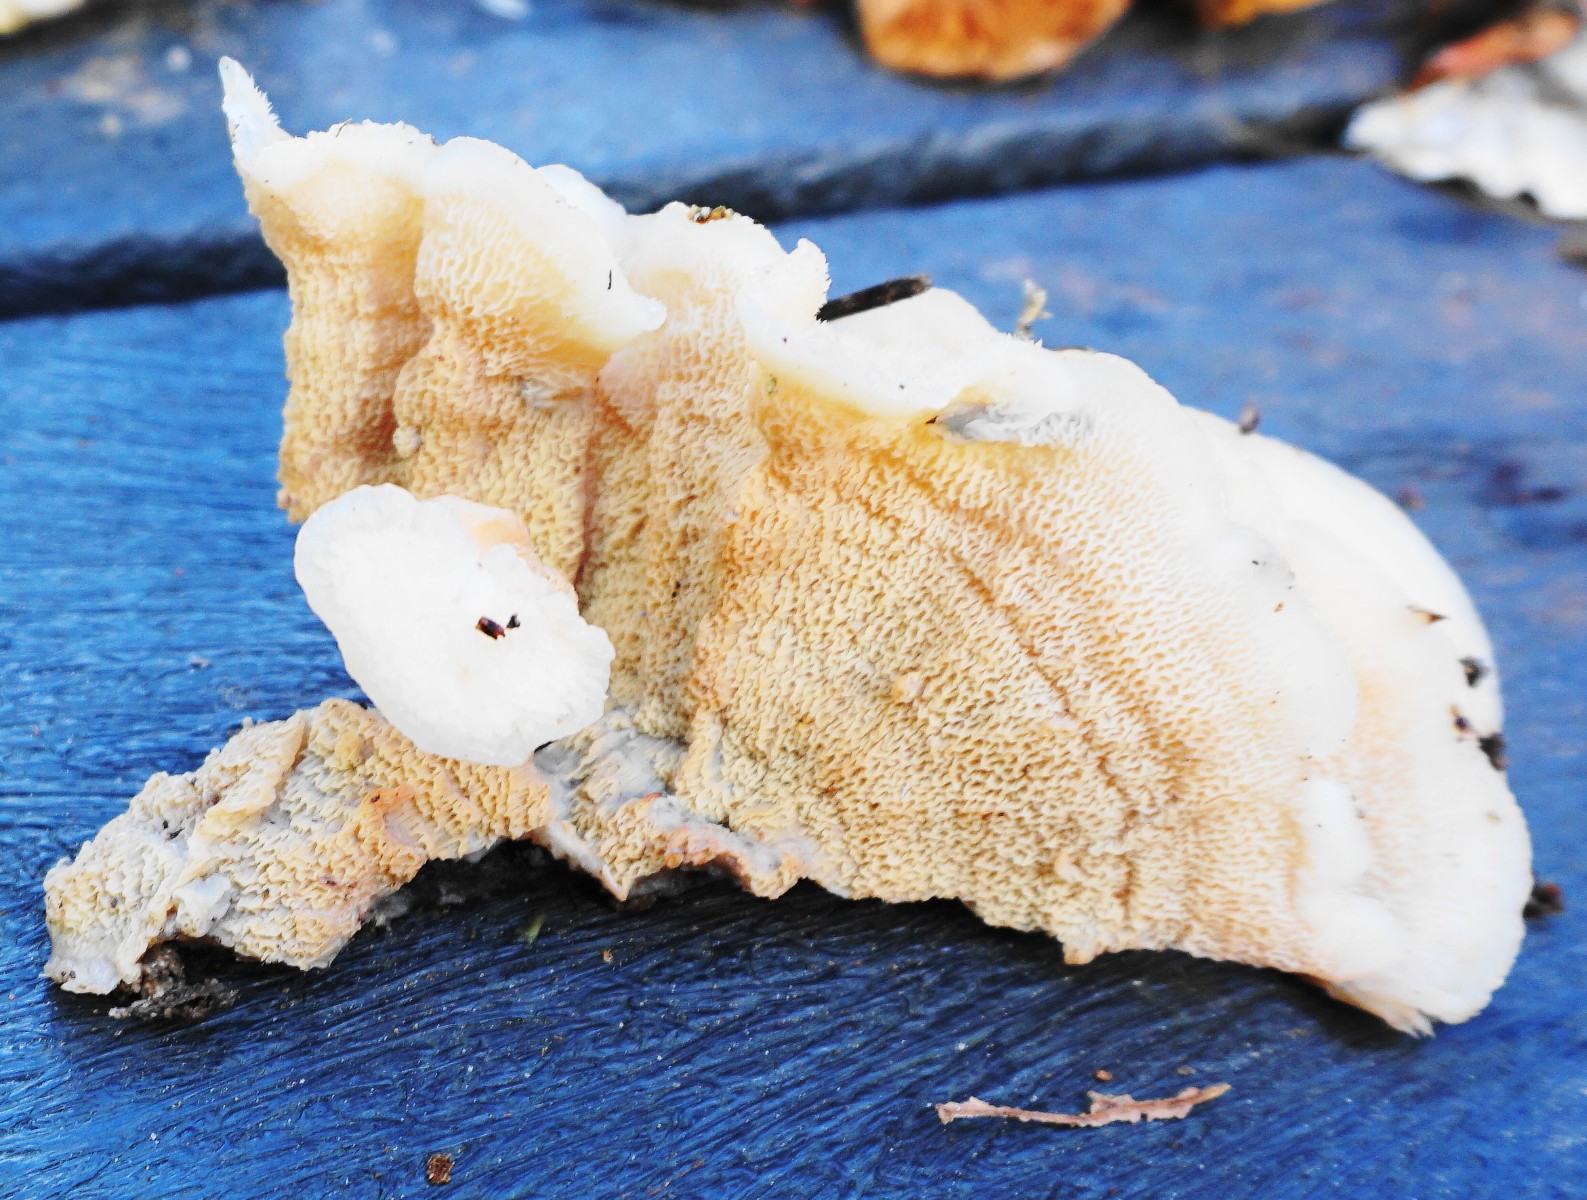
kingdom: Fungi
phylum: Basidiomycota
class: Agaricomycetes
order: Polyporales
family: Meruliaceae
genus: Phlebia
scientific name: Phlebia tremellosa
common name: bævrende åresvamp
